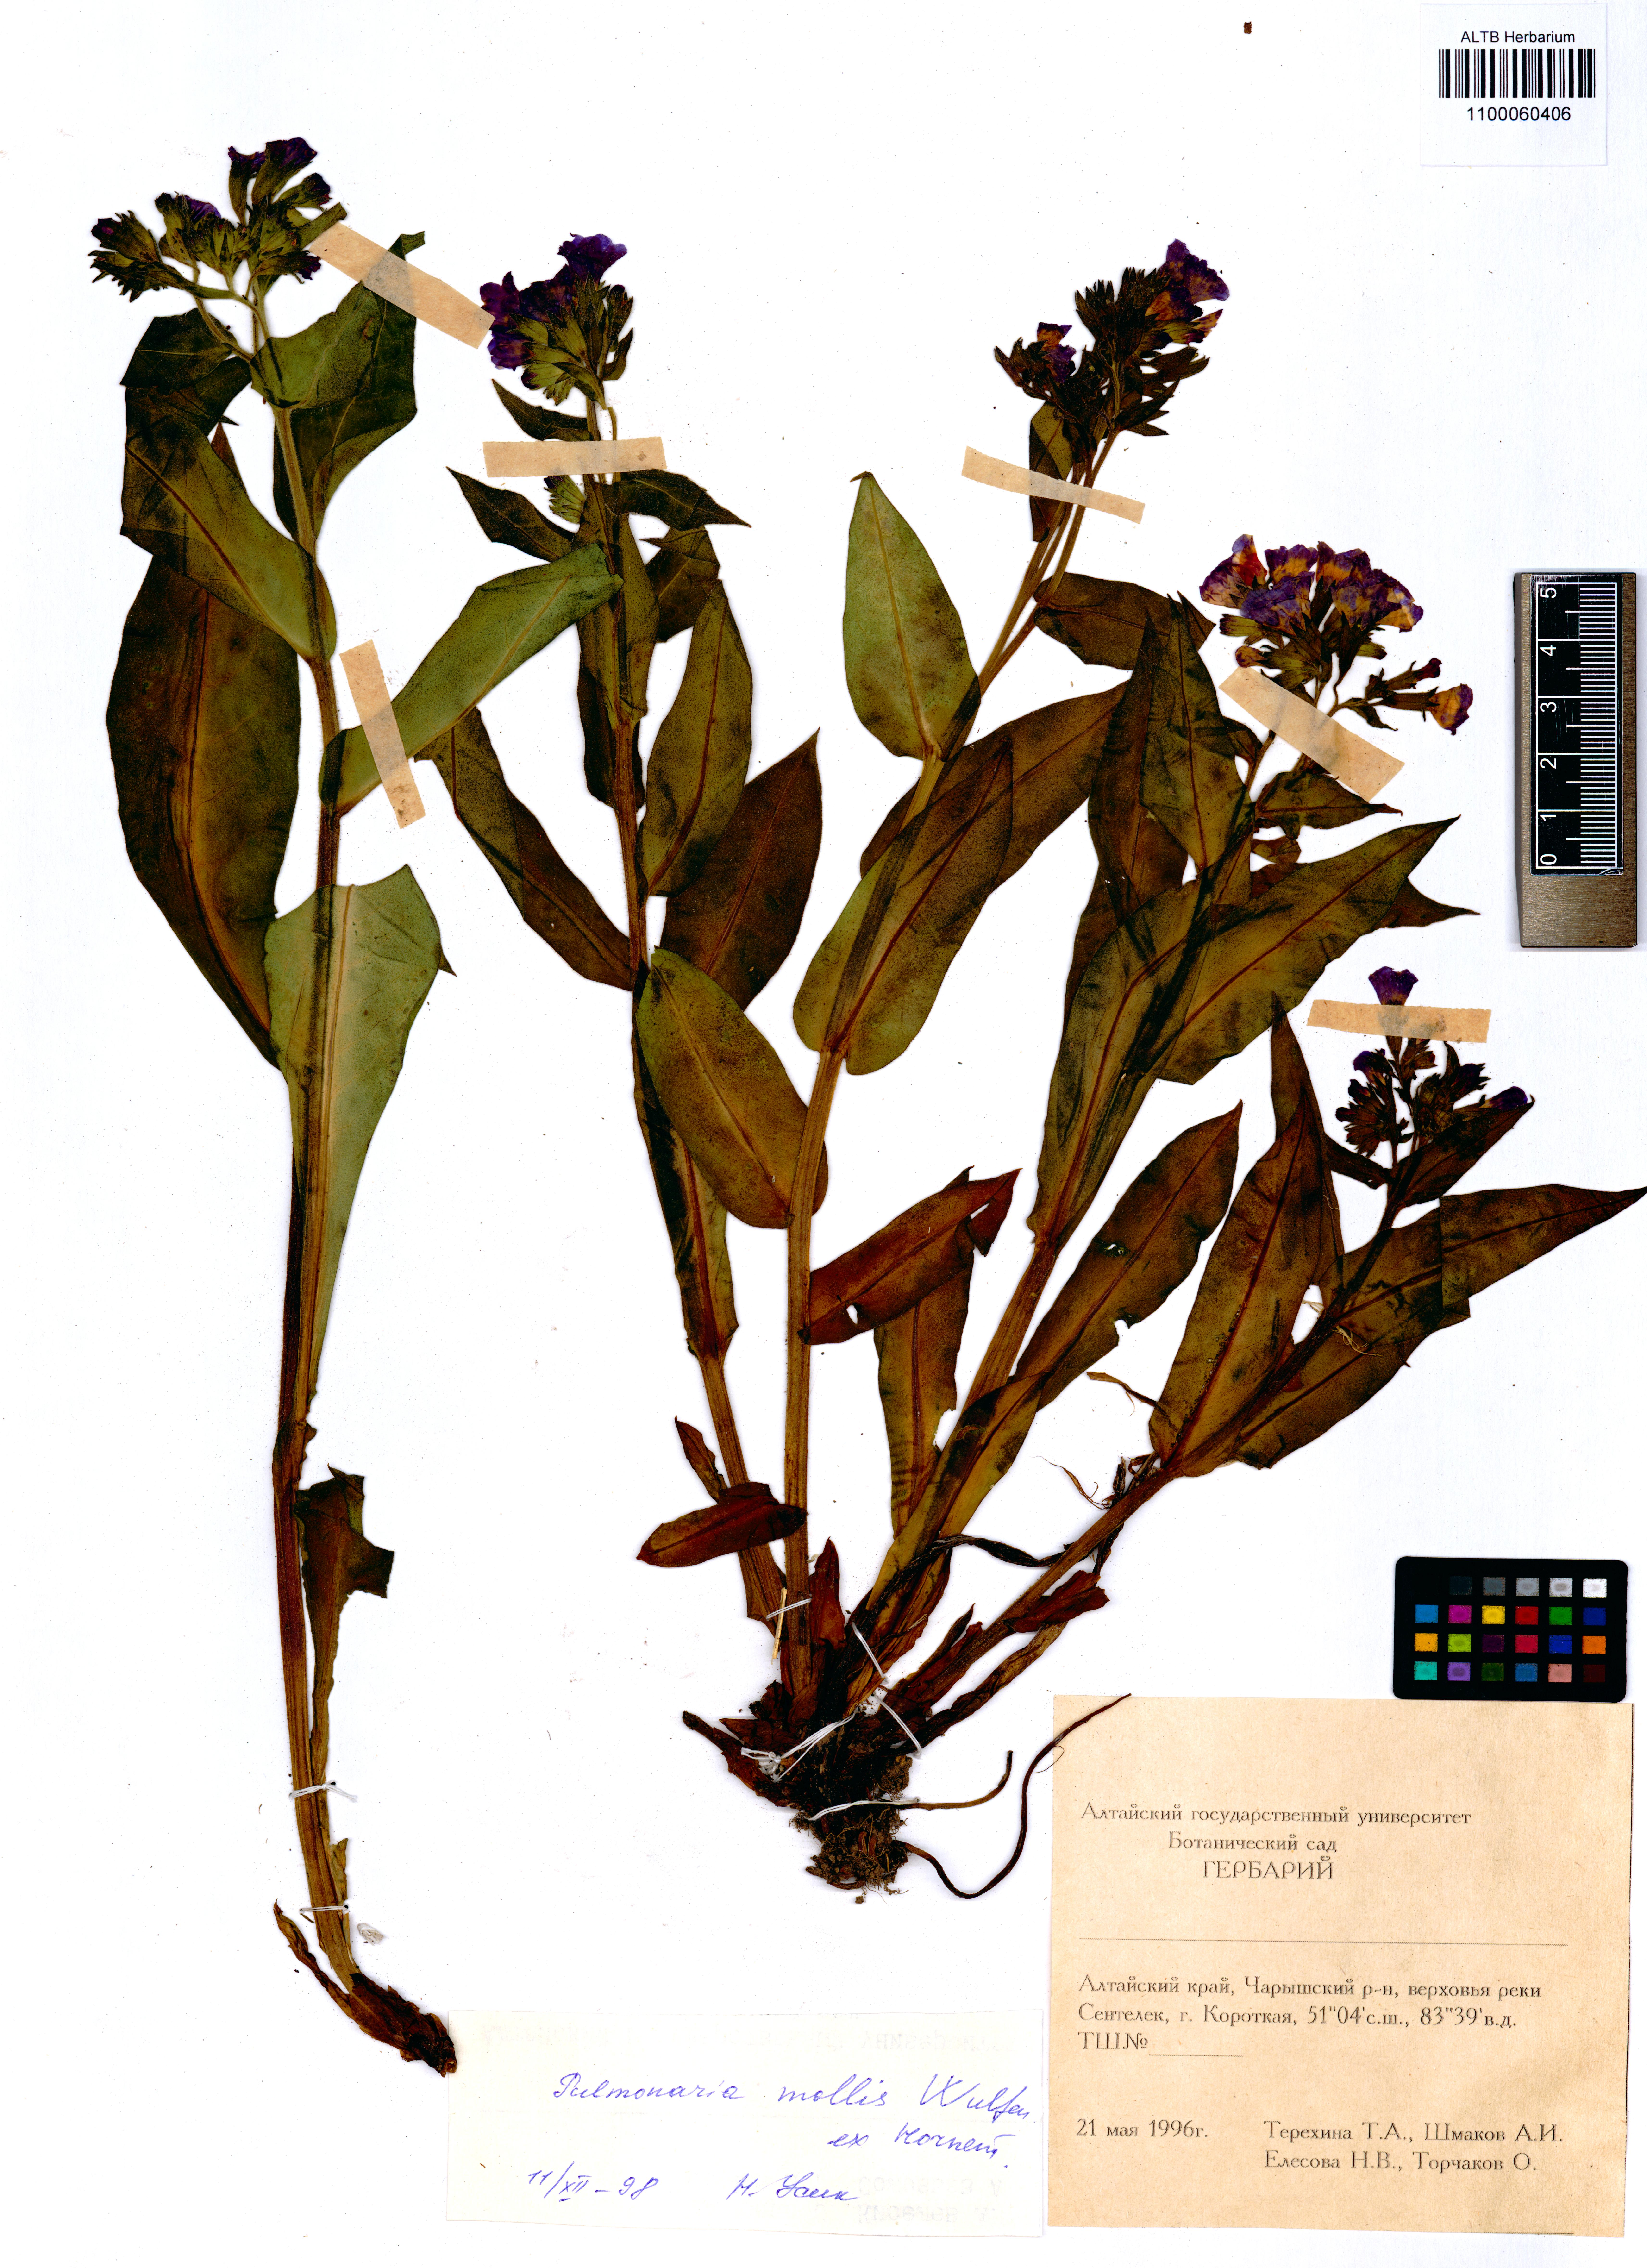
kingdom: Plantae
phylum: Tracheophyta
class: Magnoliopsida
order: Boraginales
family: Boraginaceae
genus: Pulmonaria
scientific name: Pulmonaria mollis
